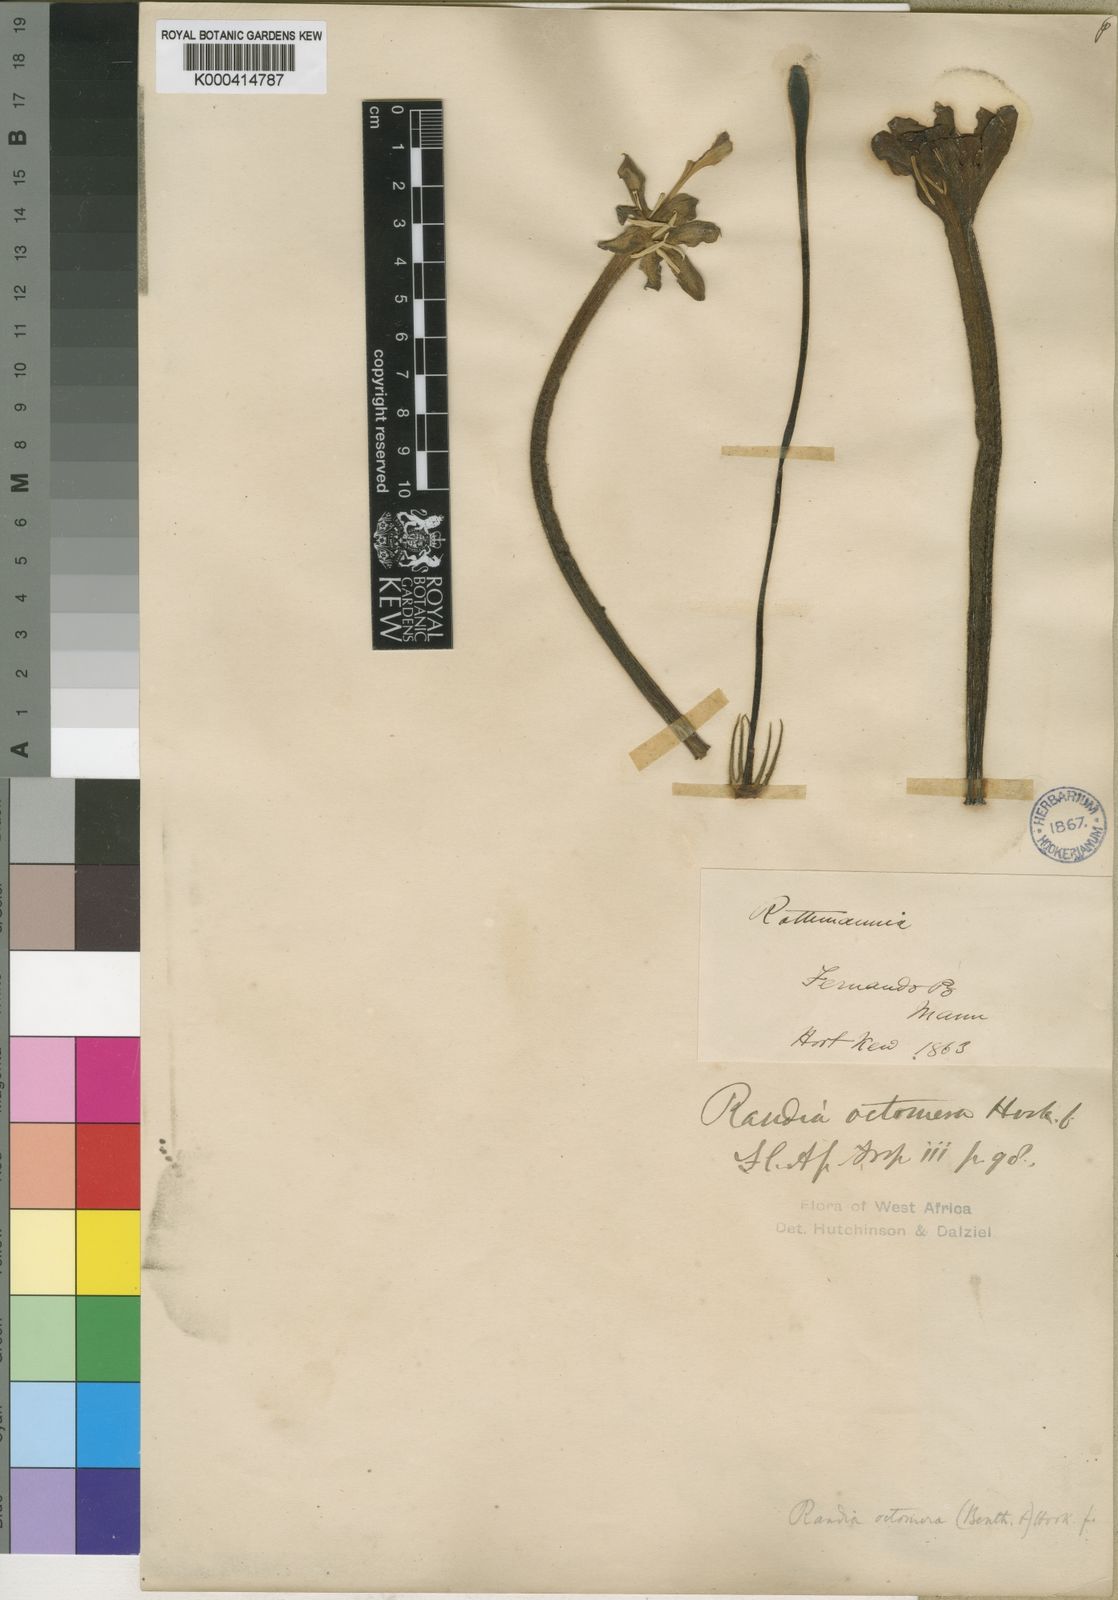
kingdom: Plantae
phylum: Tracheophyta
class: Magnoliopsida
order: Gentianales
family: Rubiaceae
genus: Rothmannia
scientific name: Rothmannia octomera
